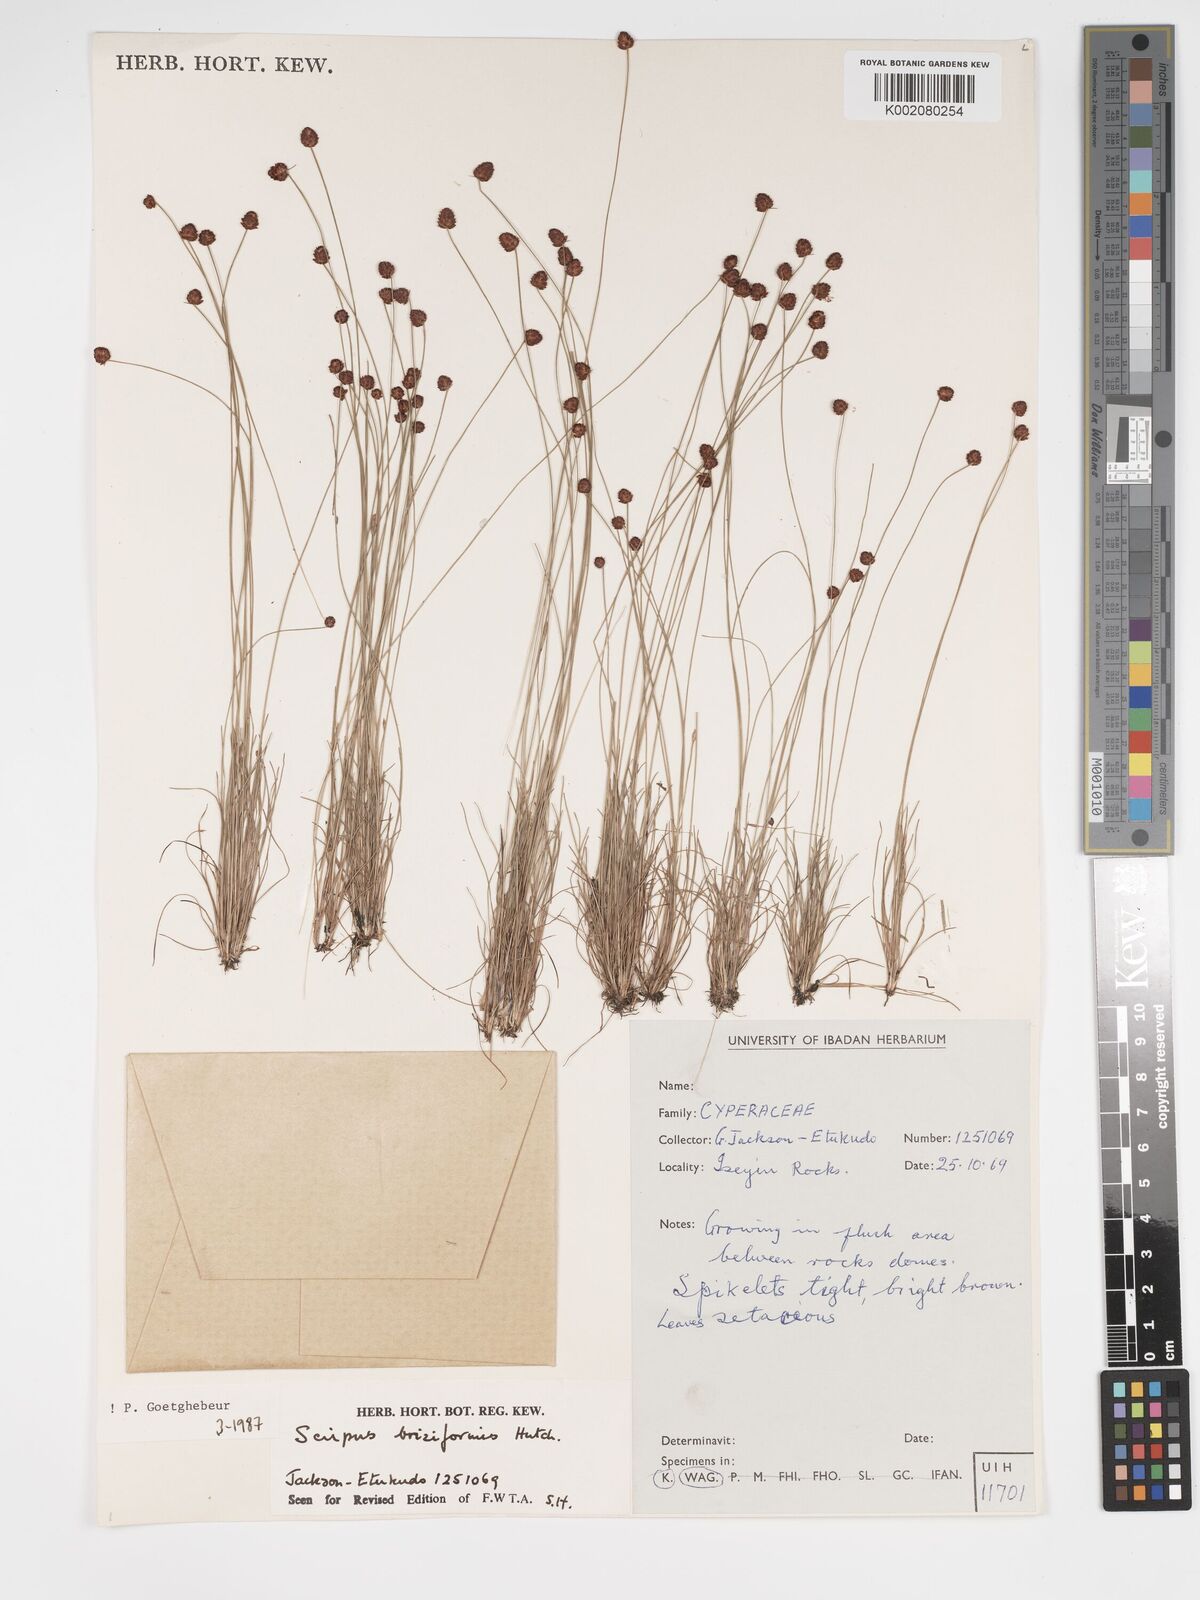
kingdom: Plantae
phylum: Tracheophyta
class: Liliopsida
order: Poales
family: Cyperaceae
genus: Bulbostylis
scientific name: Bulbostylis briziformis
